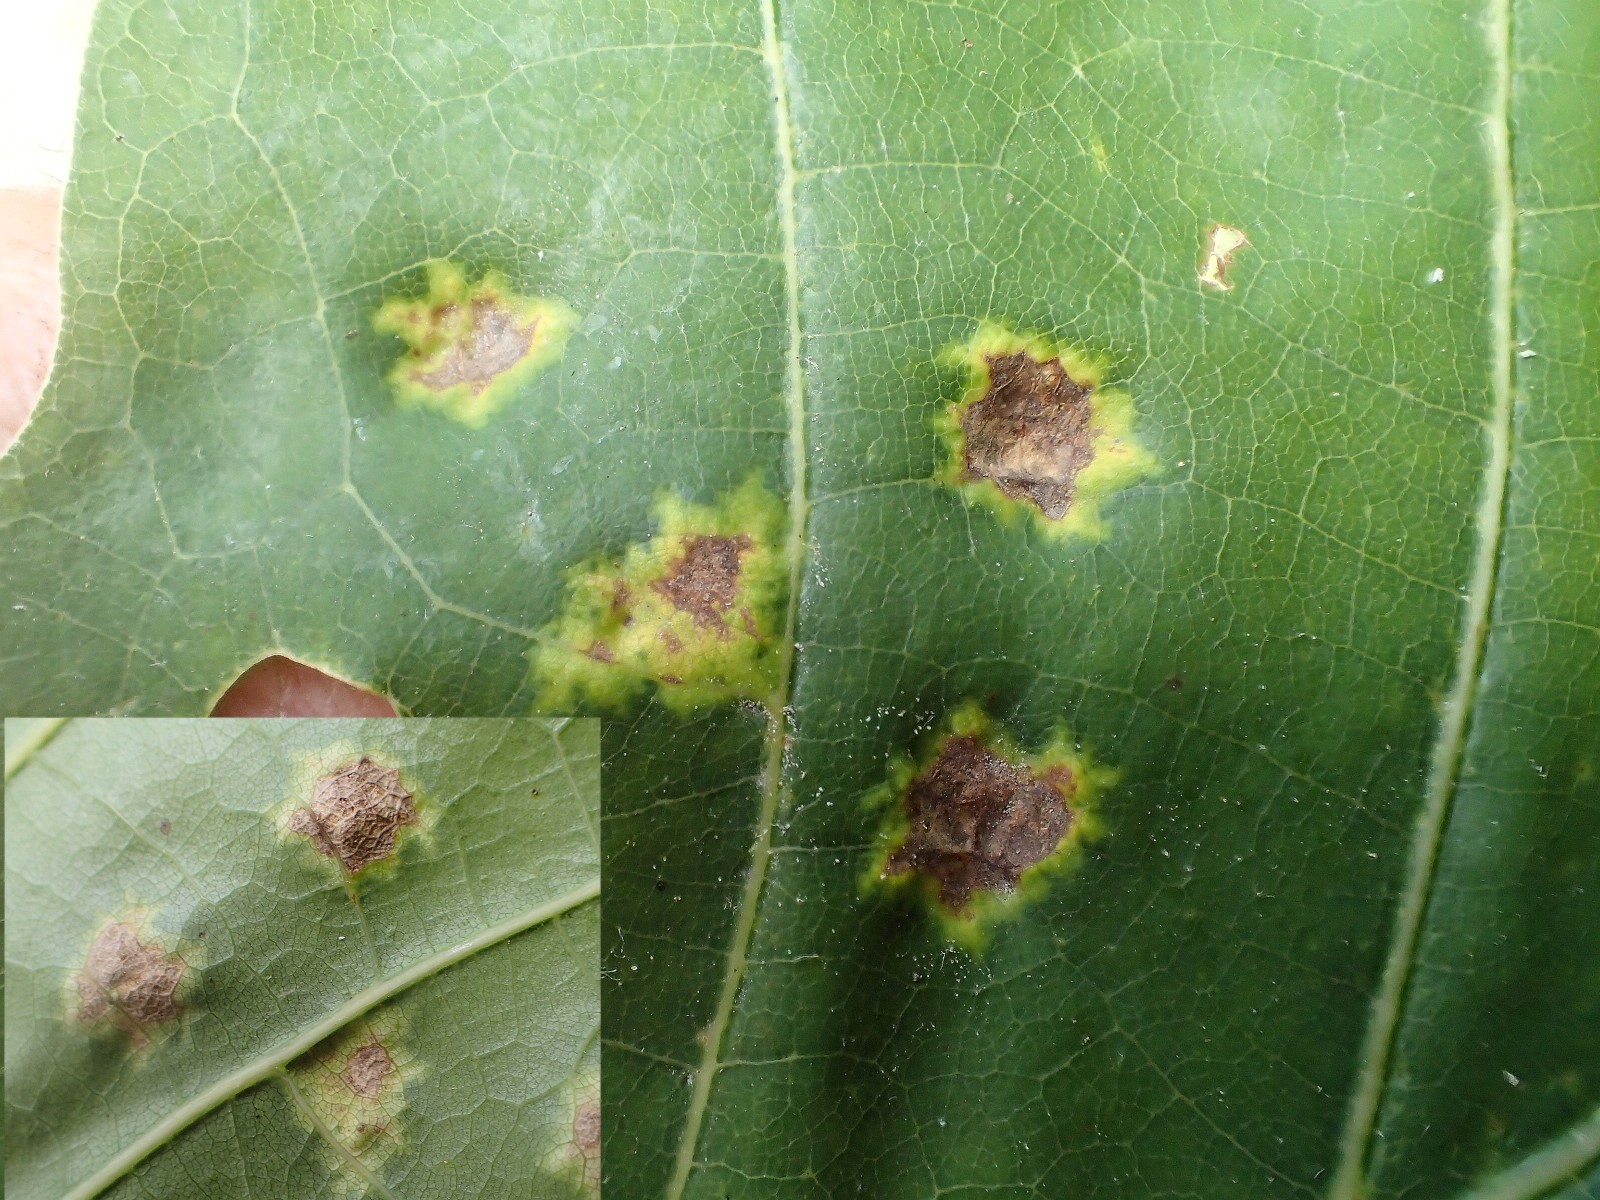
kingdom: Fungi
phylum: Ascomycota
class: Taphrinomycetes
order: Taphrinales
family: Taphrinaceae
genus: Taphrina
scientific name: Taphrina caerulescens
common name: Oak leaf blister
